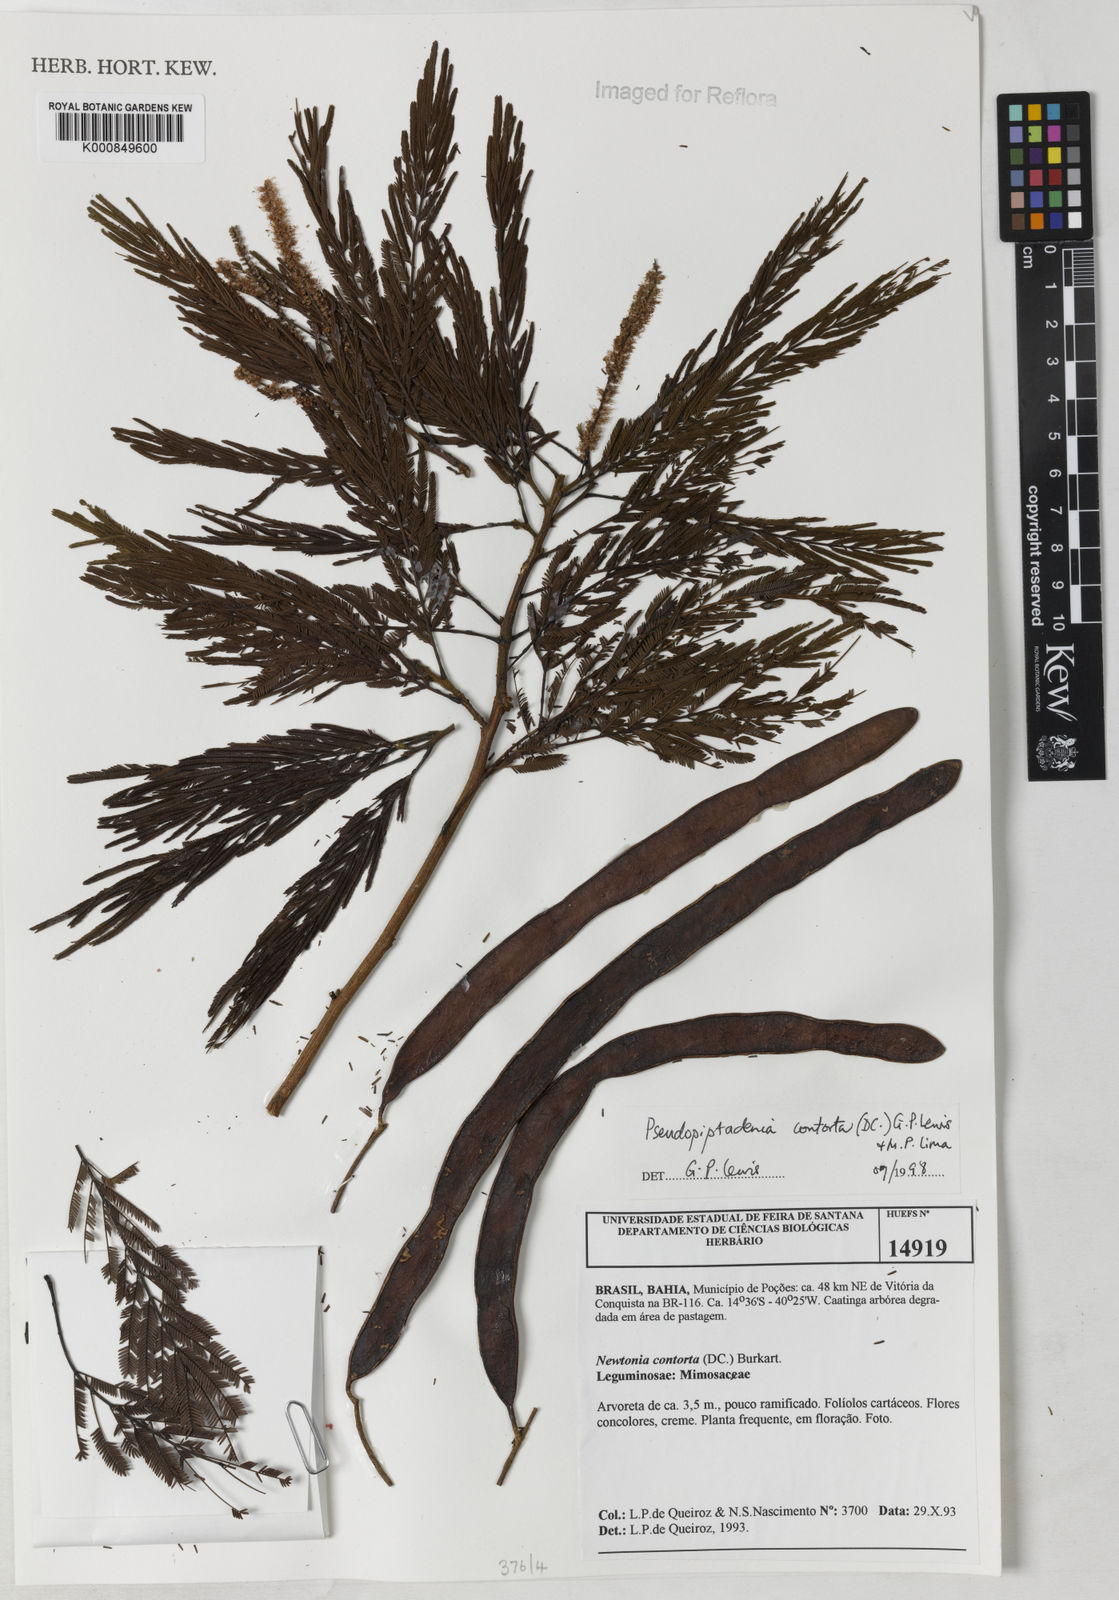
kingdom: Plantae
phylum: Tracheophyta
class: Magnoliopsida
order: Fabales
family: Fabaceae
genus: Pseudopiptadenia
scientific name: Pseudopiptadenia contorta
